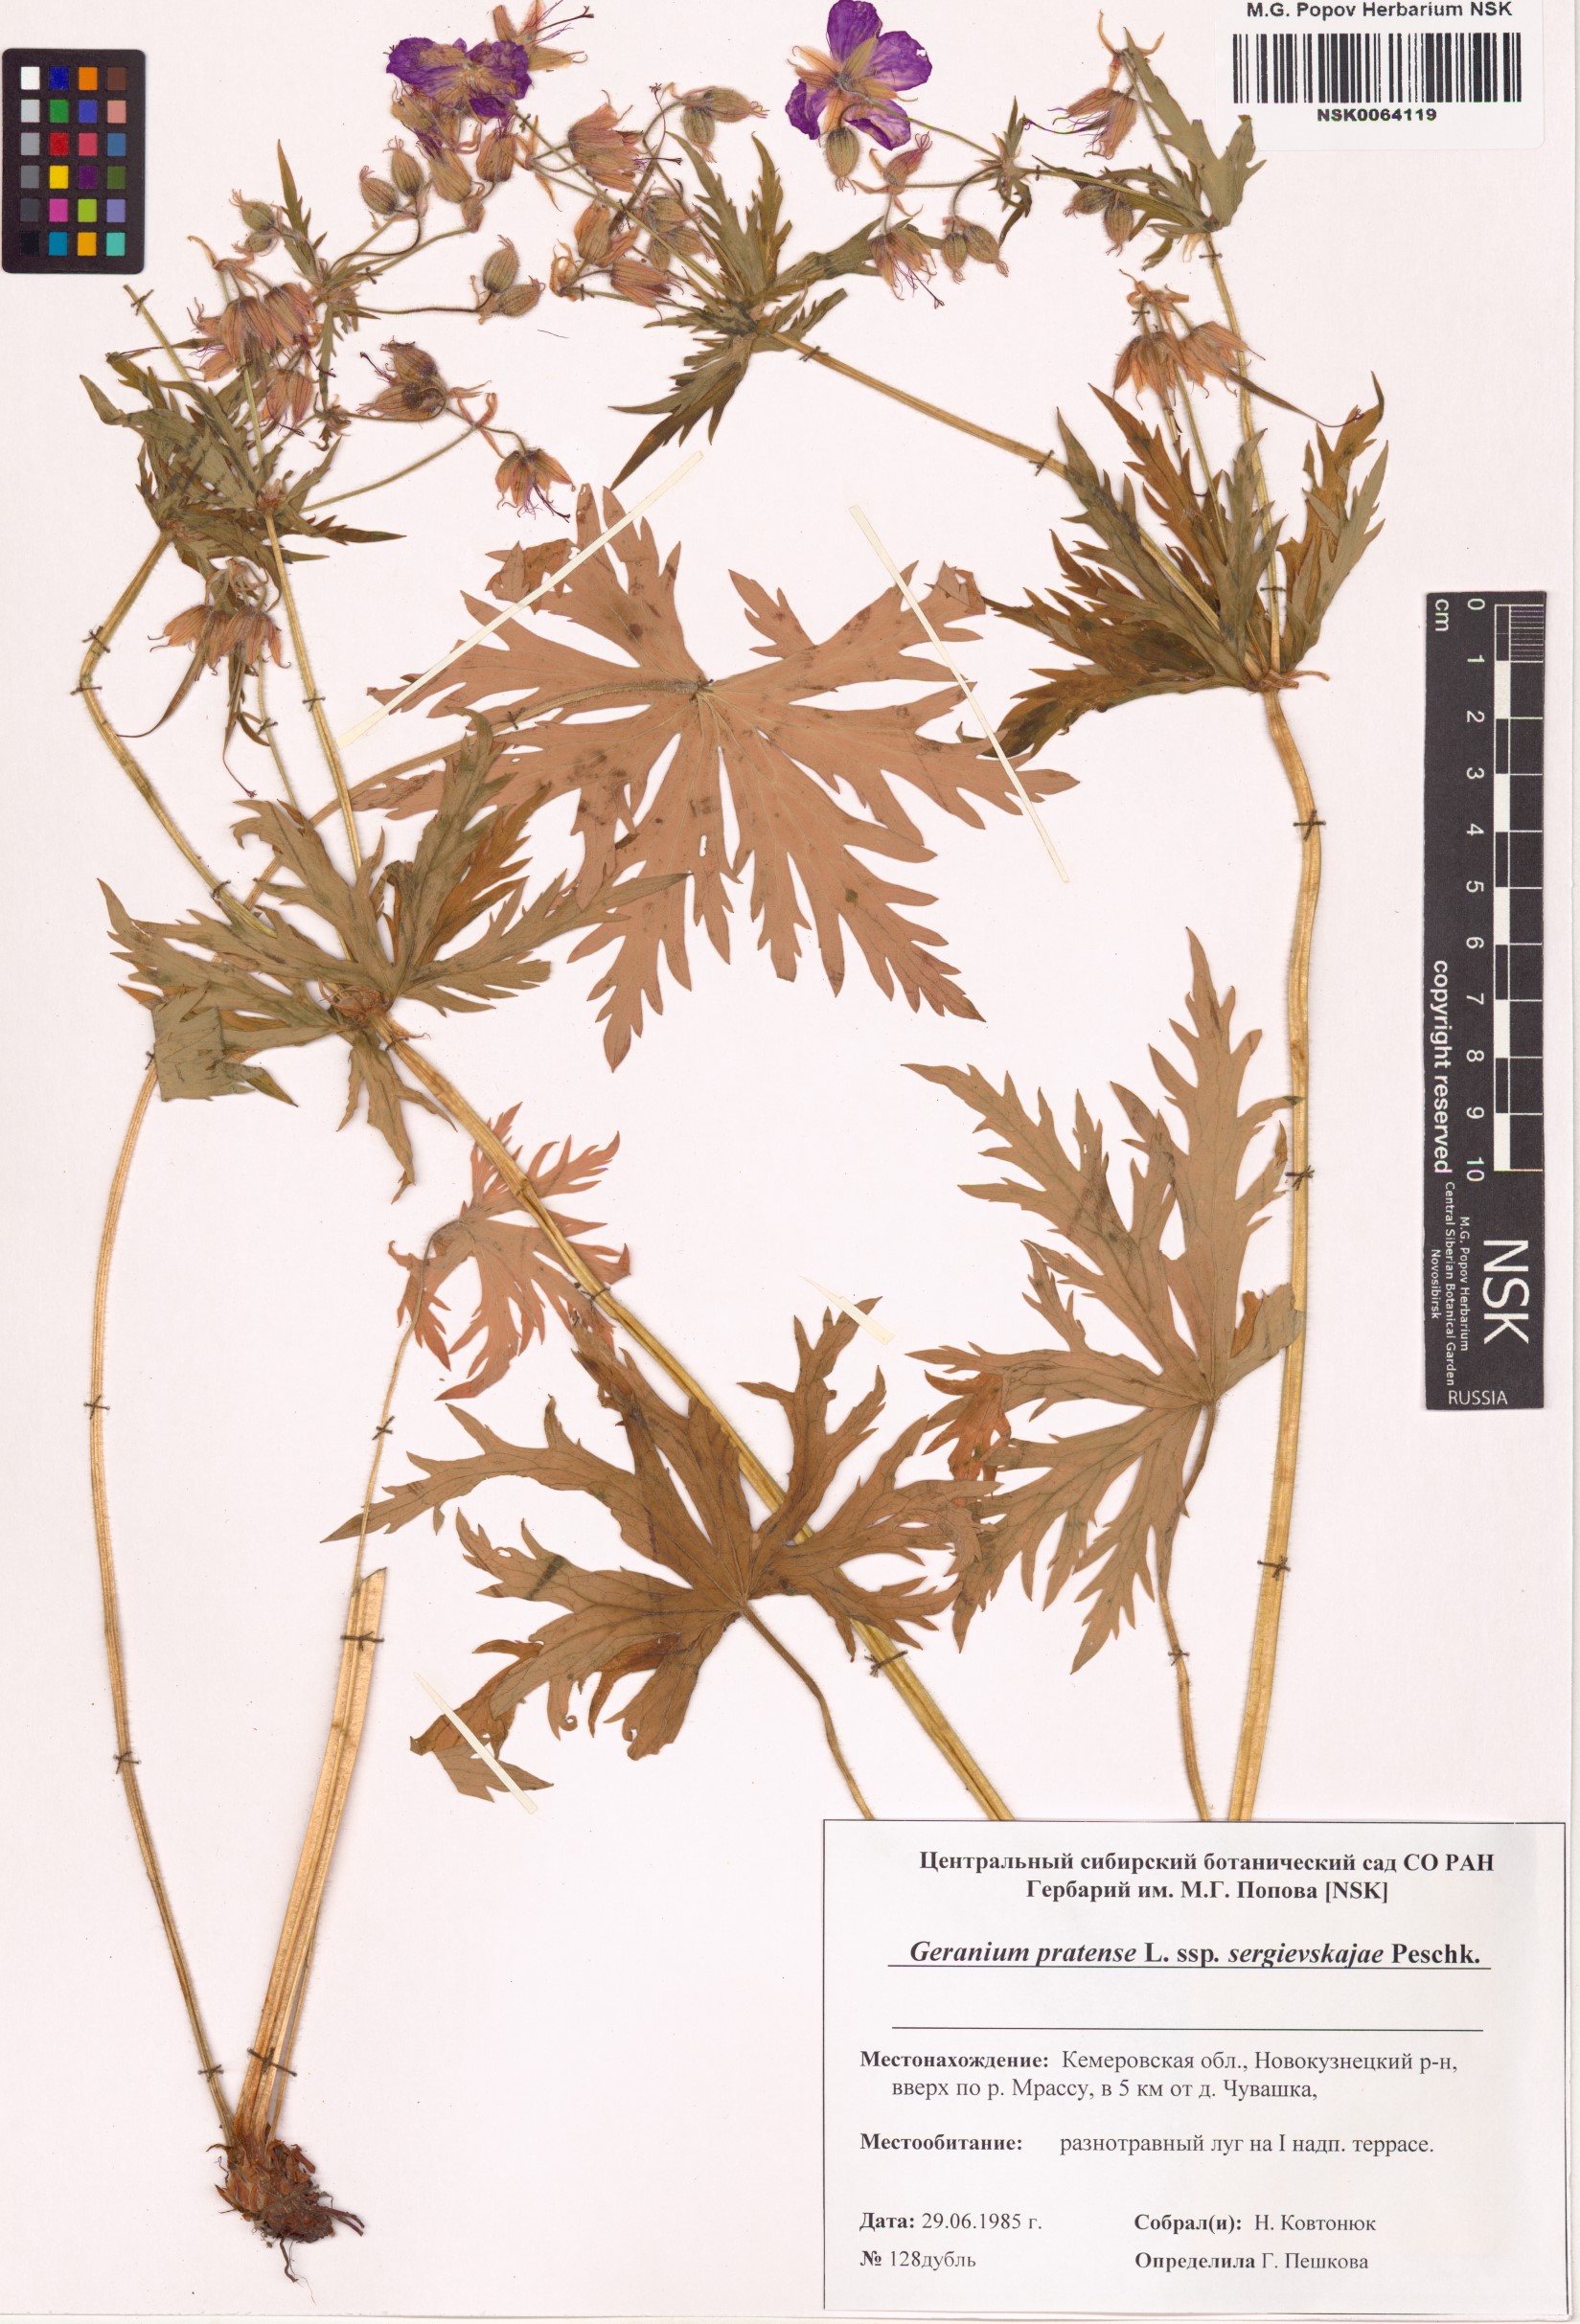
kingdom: Plantae
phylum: Tracheophyta
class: Magnoliopsida
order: Geraniales
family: Geraniaceae
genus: Geranium
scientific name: Geranium pratense
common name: Meadow crane's-bill
